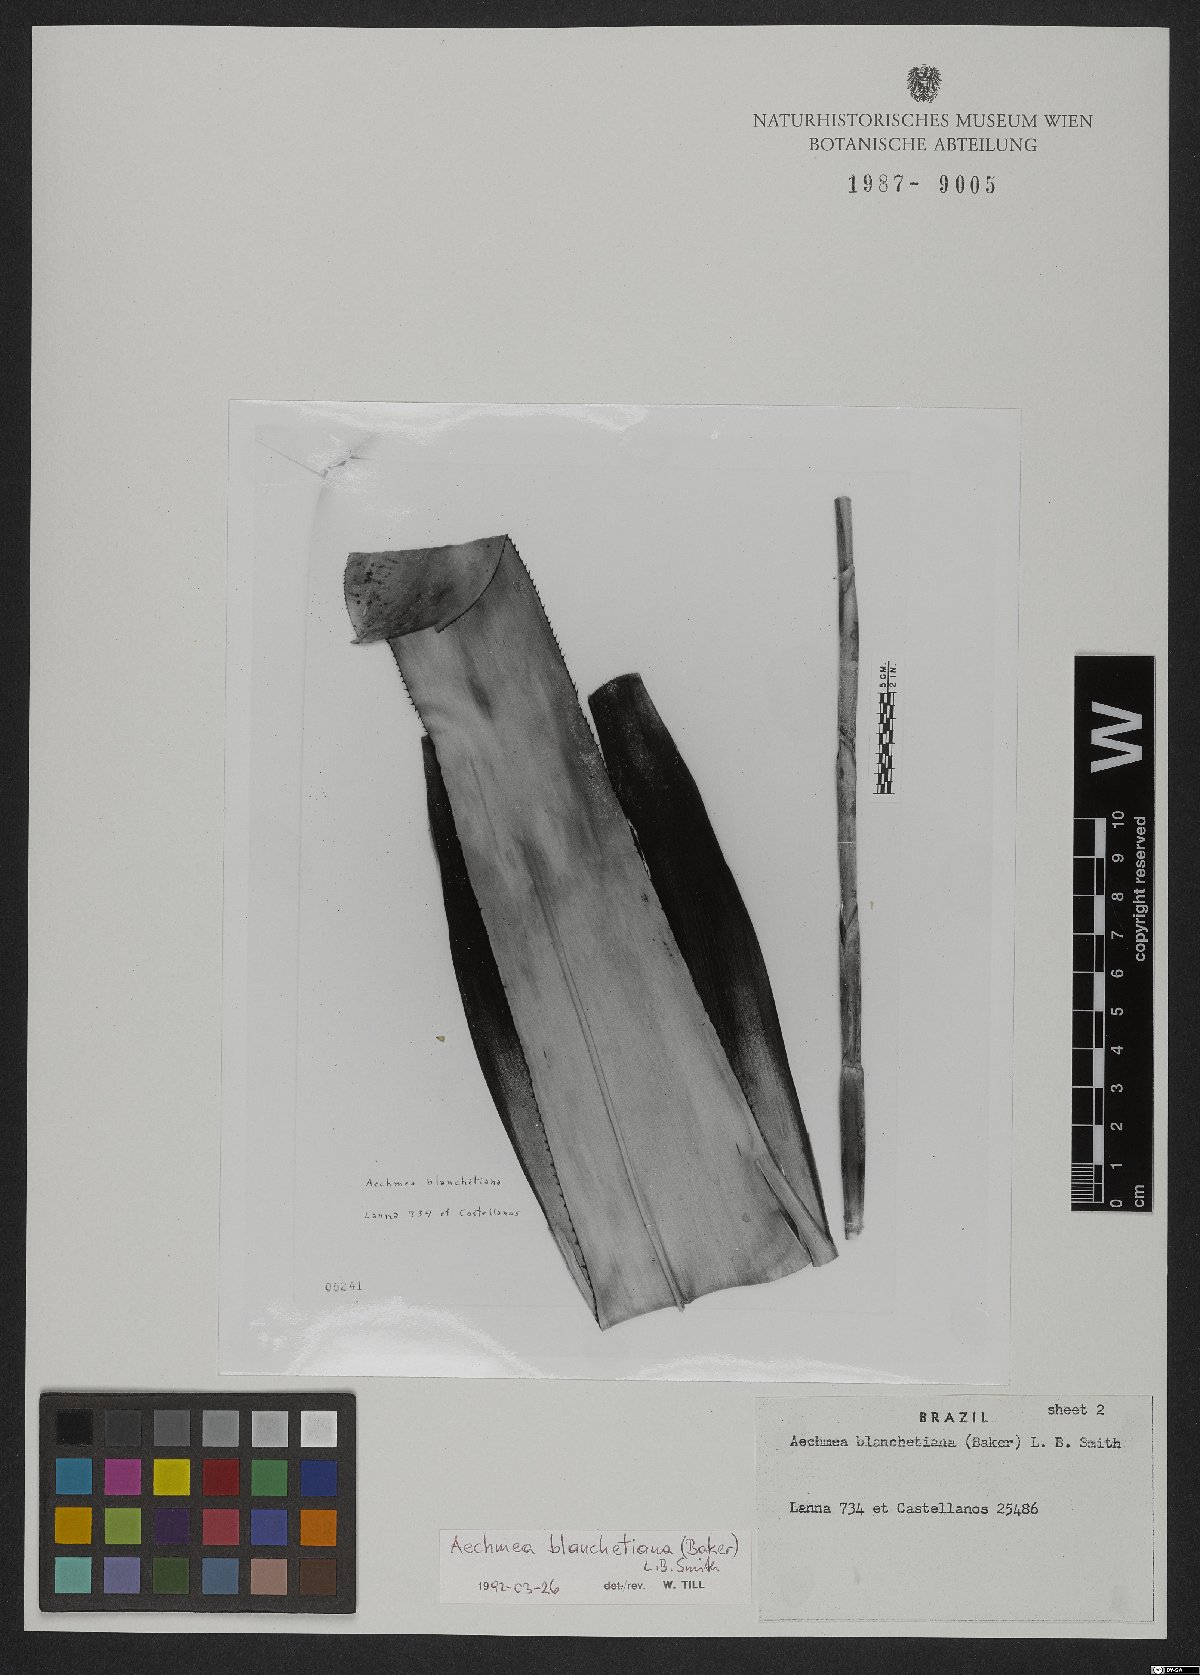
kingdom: Plantae
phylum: Tracheophyta
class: Liliopsida
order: Poales
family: Bromeliaceae
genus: Aechmea
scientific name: Aechmea blanchetiana
